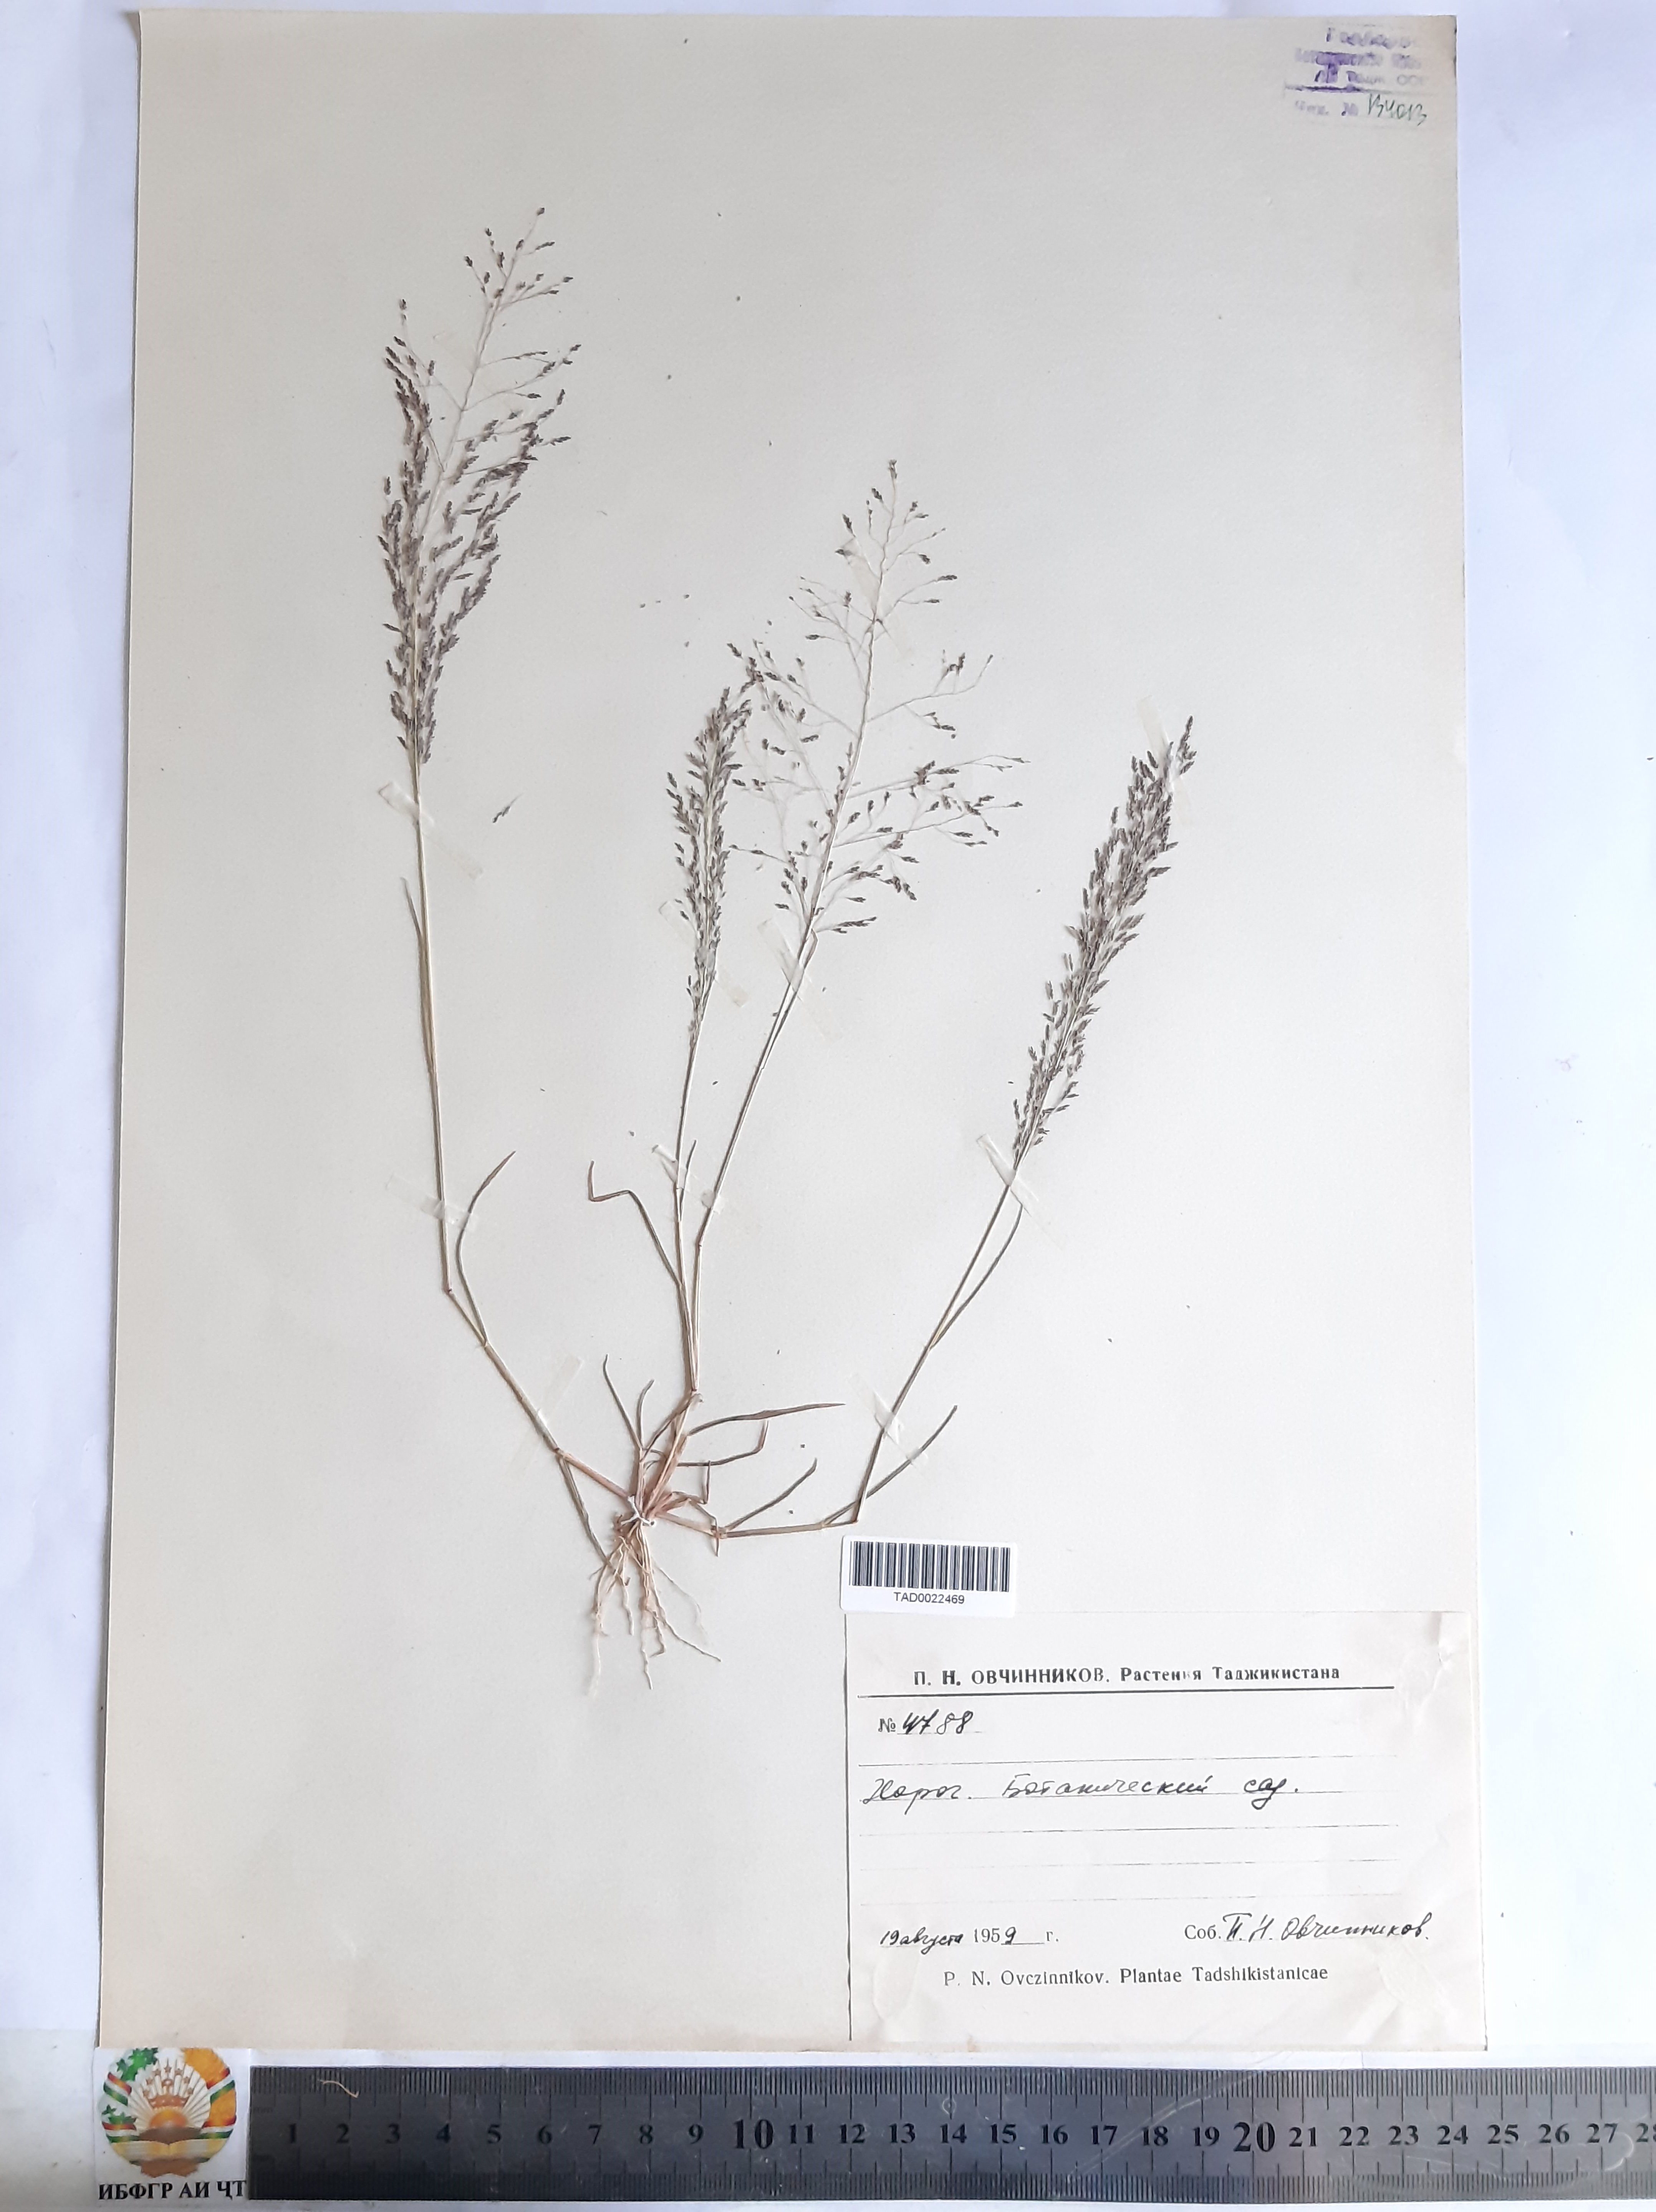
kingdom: Plantae
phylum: Tracheophyta
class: Liliopsida
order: Poales
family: Poaceae
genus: Eragrostis
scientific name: Eragrostis pilosa
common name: Indian lovegrass
